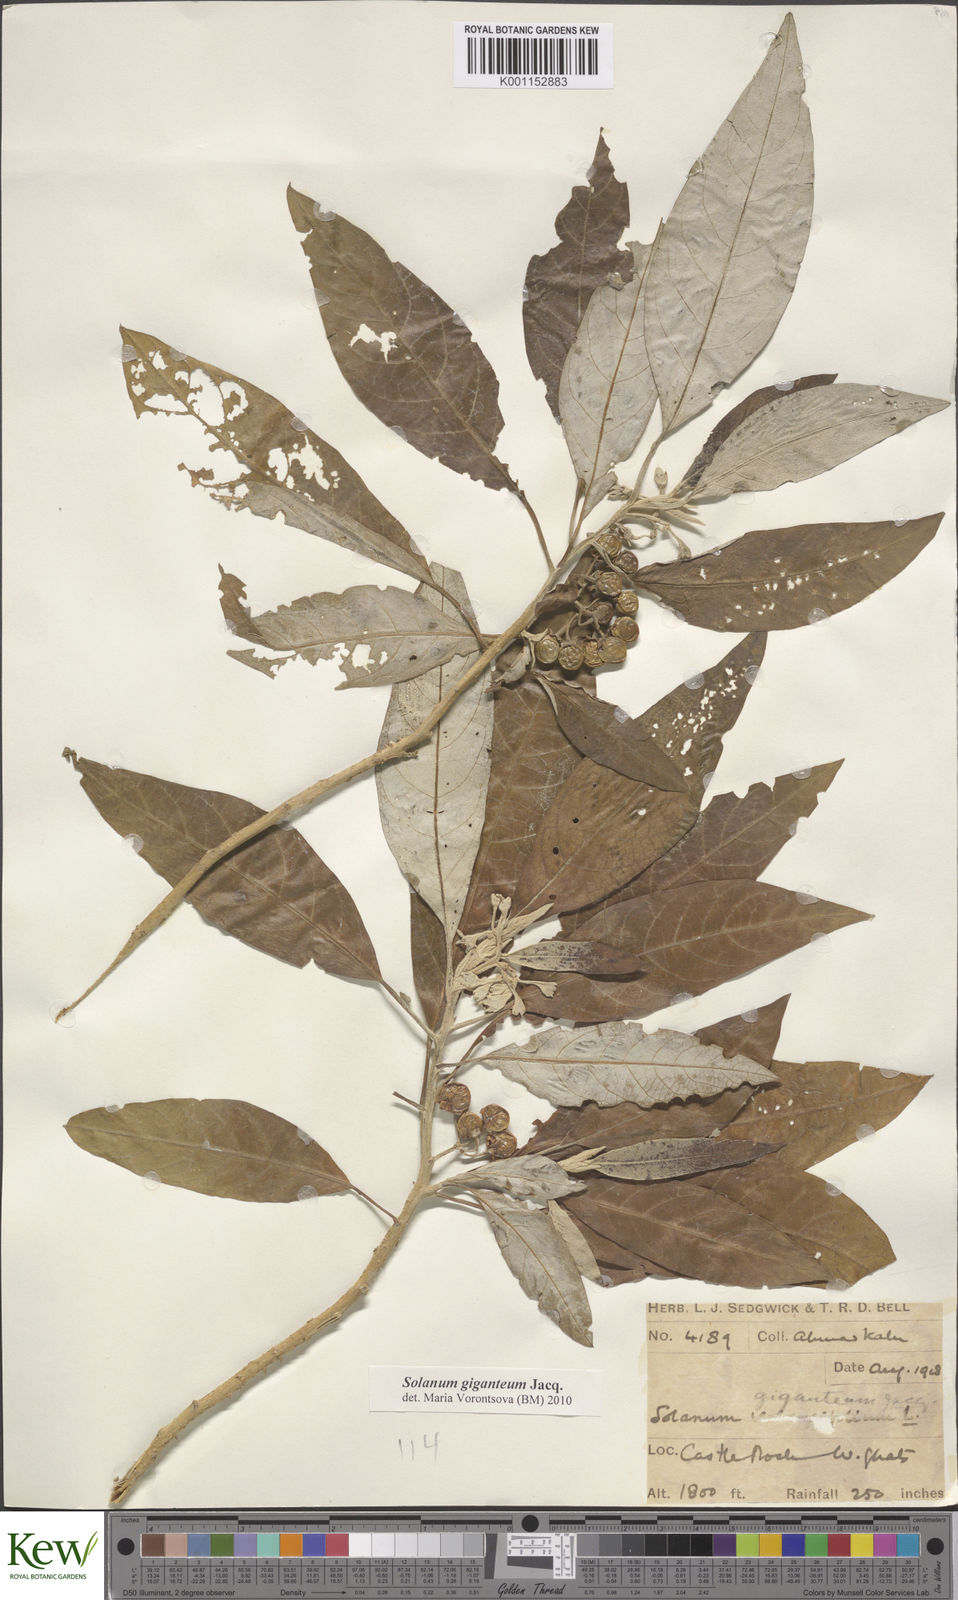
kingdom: Plantae
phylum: Tracheophyta
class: Magnoliopsida
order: Solanales
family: Solanaceae
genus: Solanum
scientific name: Solanum giganteum
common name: Healing-leaf-tree
